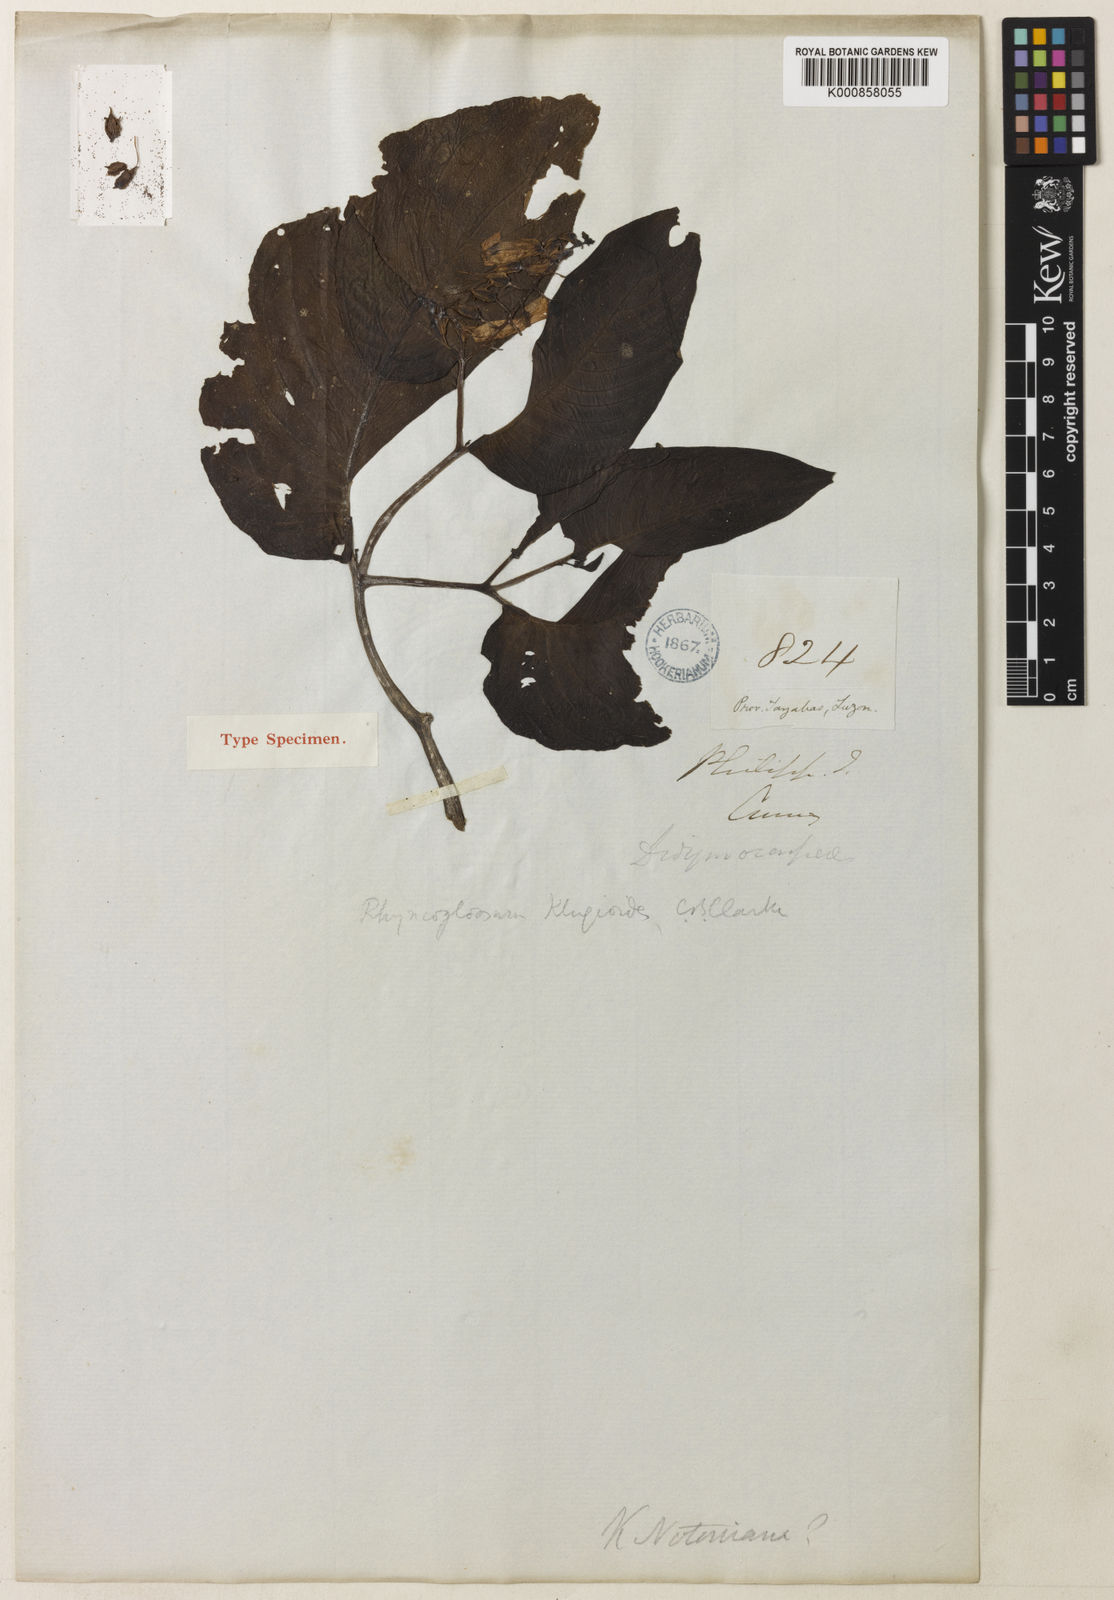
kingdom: Plantae
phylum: Tracheophyta
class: Magnoliopsida
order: Lamiales
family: Gesneriaceae
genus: Rhynchoglossum
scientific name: Rhynchoglossum klugioides
